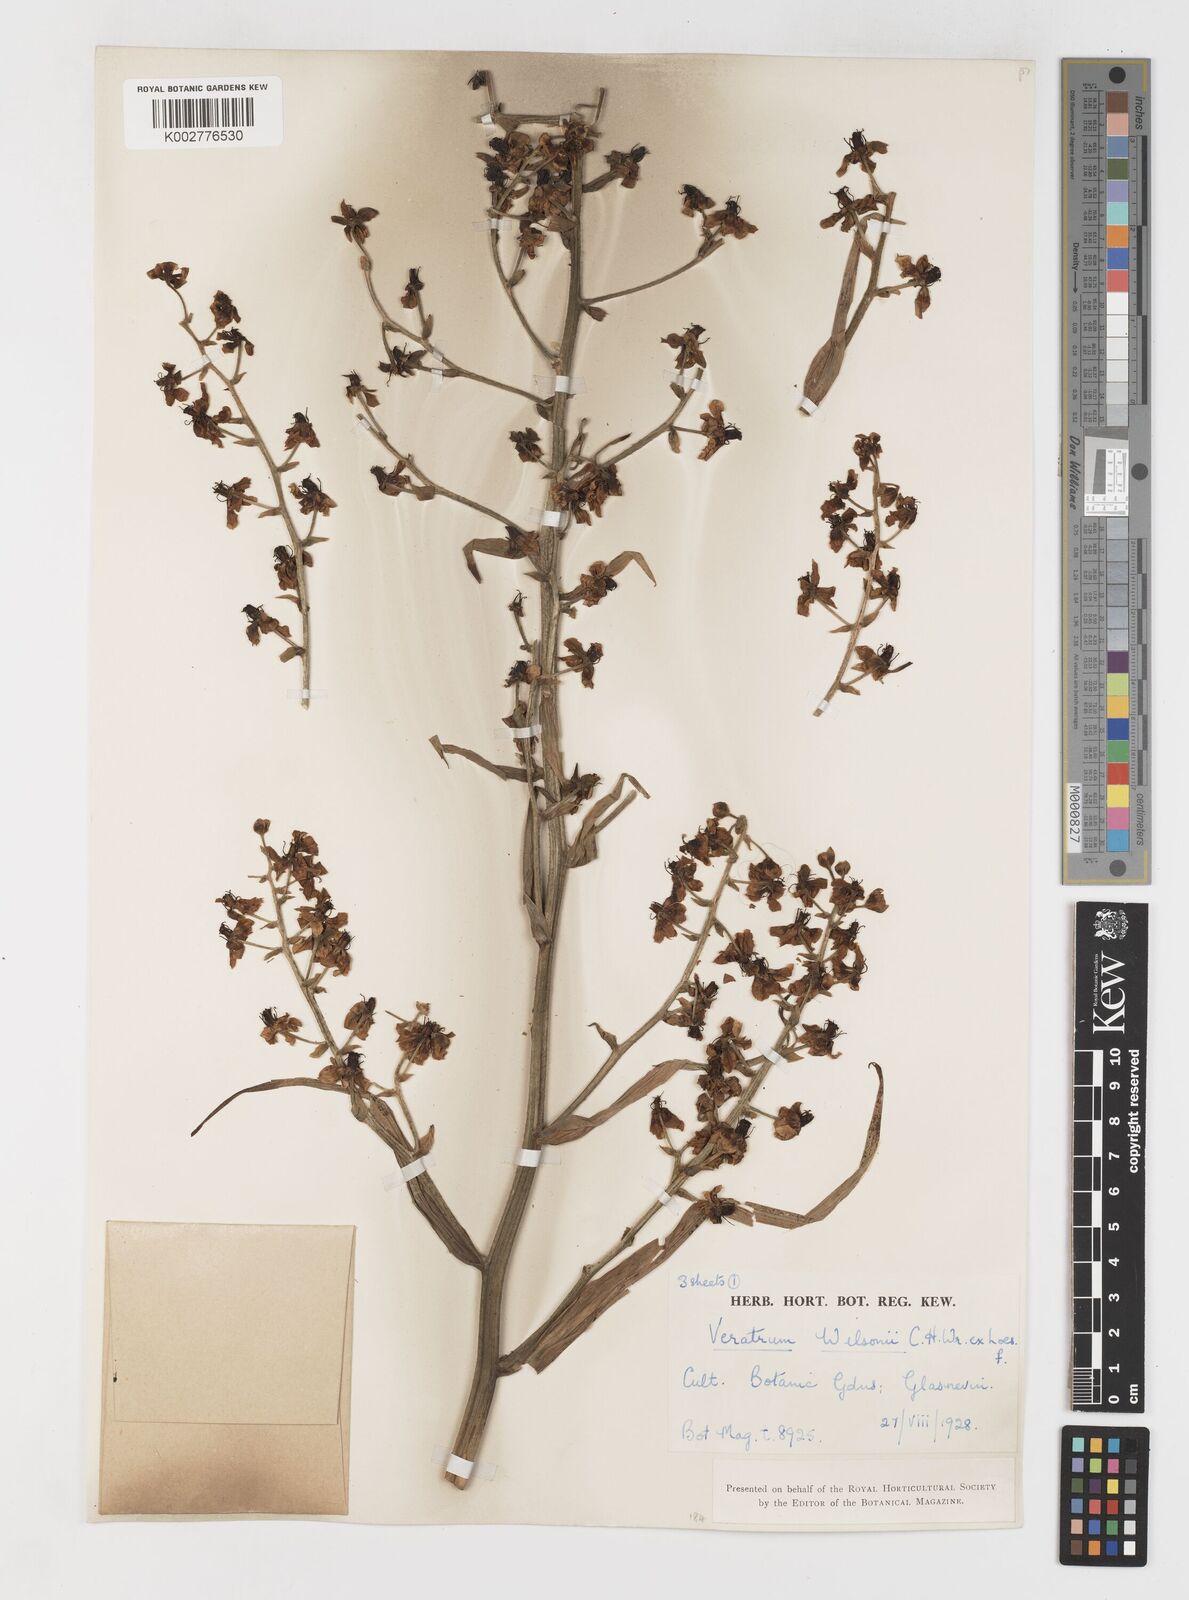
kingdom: Plantae
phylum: Tracheophyta
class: Liliopsida
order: Liliales
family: Melanthiaceae
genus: Veratrum
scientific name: Veratrum mengtzeanum
